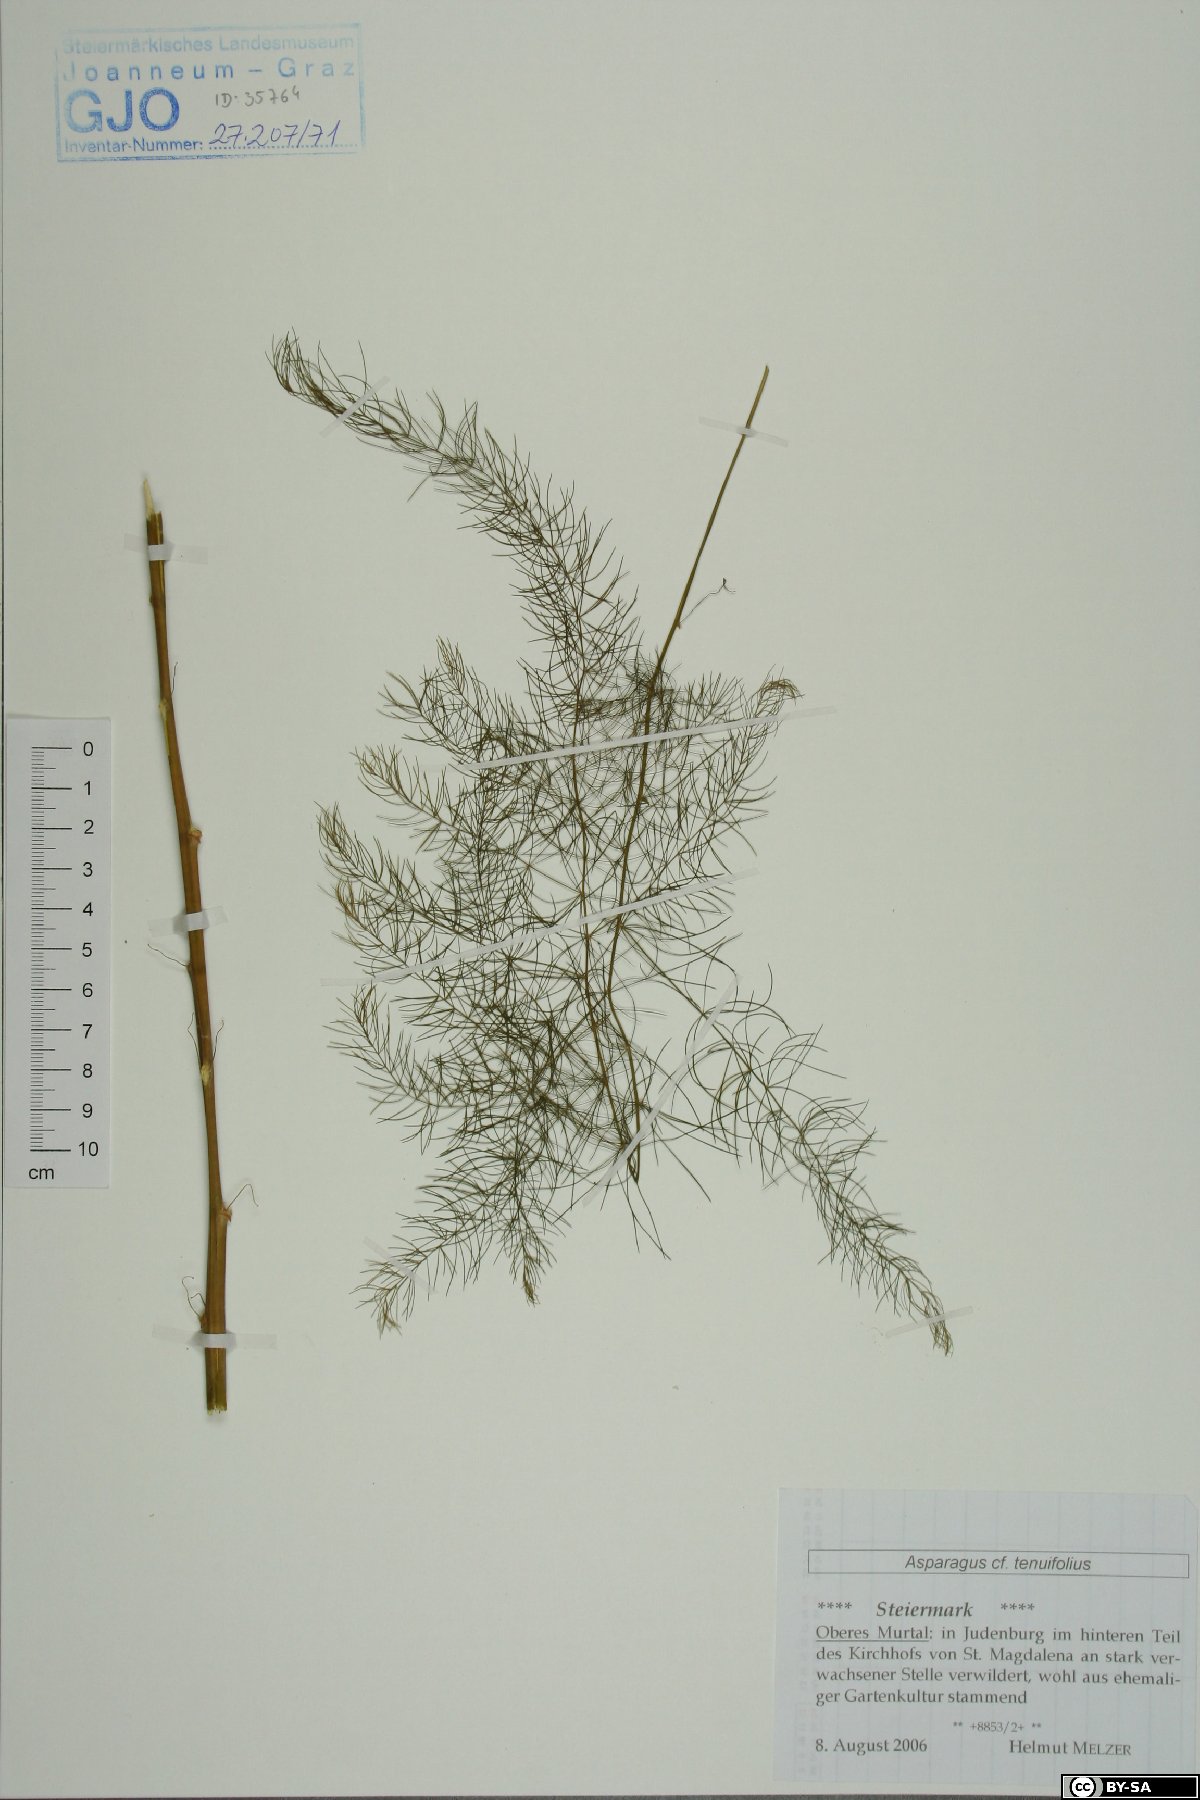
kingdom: Plantae
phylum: Tracheophyta
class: Liliopsida
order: Asparagales
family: Asparagaceae
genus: Asparagus
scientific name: Asparagus tenuifolius
